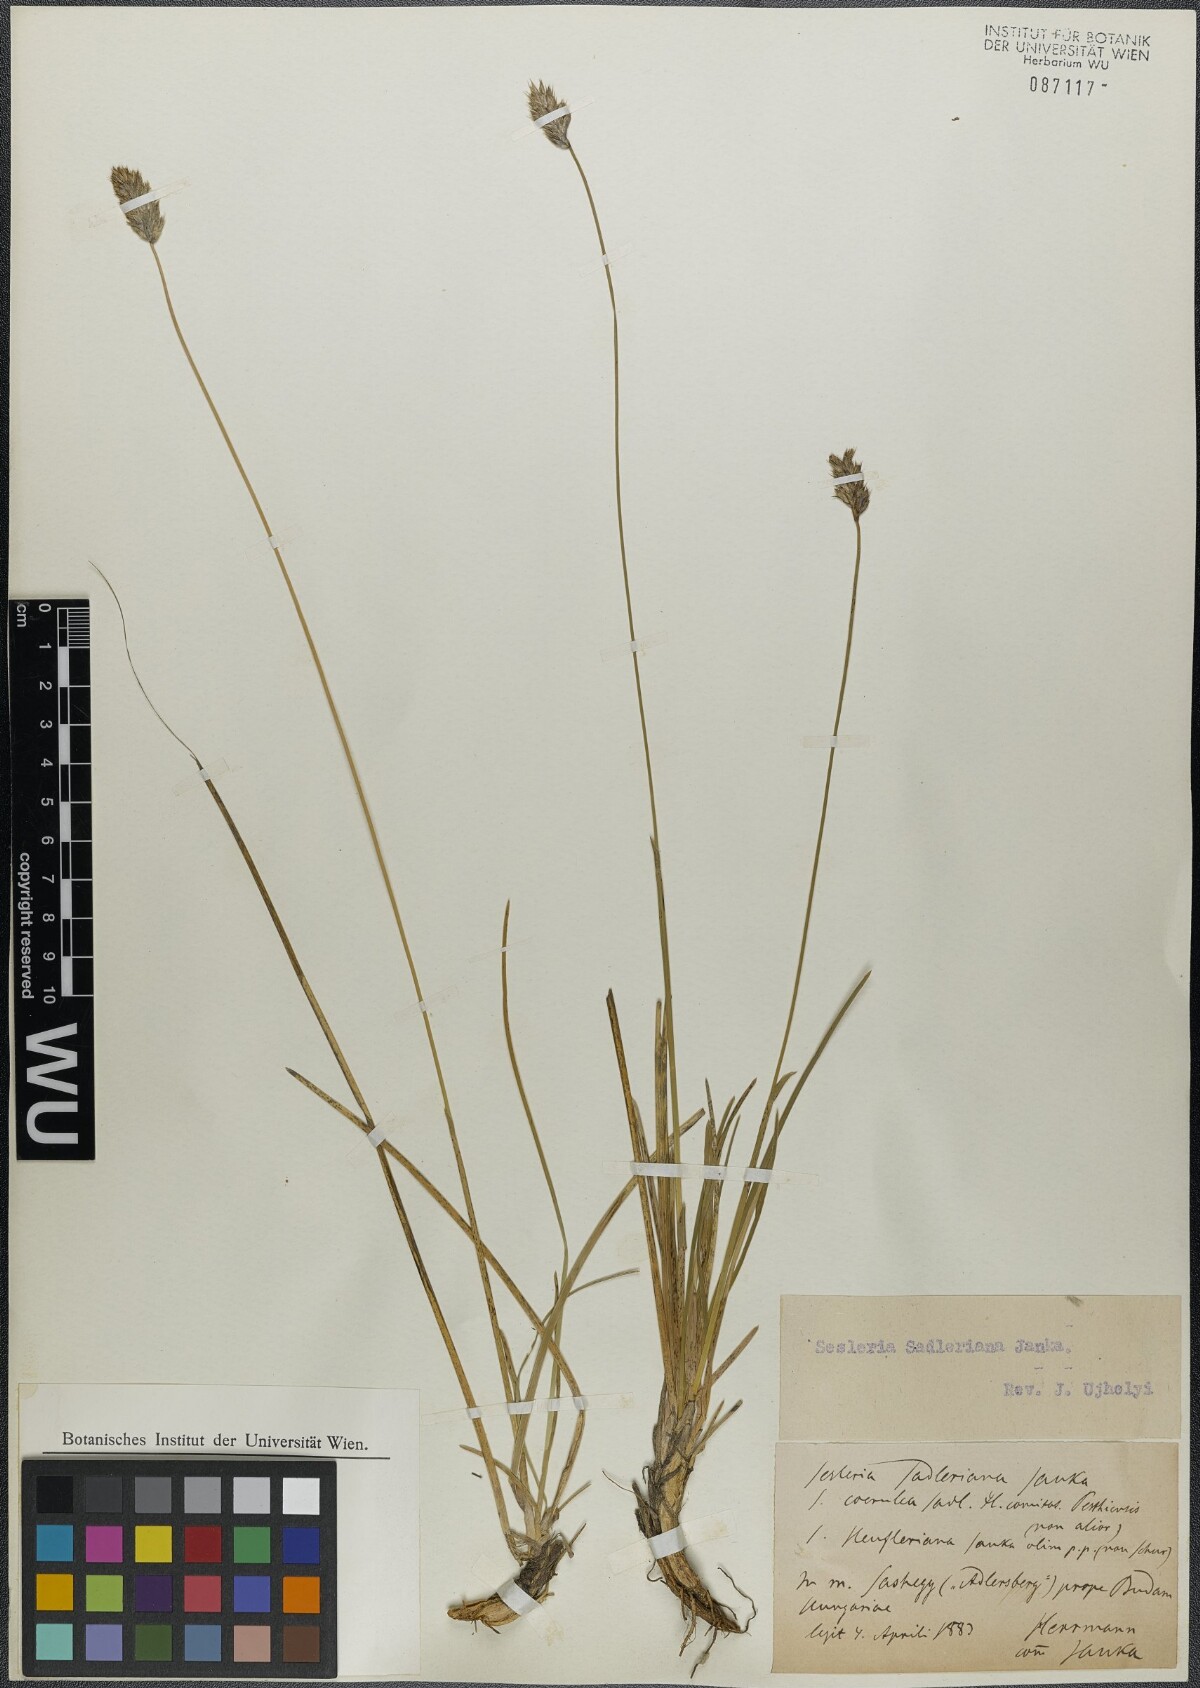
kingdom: Plantae
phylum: Tracheophyta
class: Liliopsida
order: Poales
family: Poaceae
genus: Sesleria
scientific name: Sesleria sadleriana
